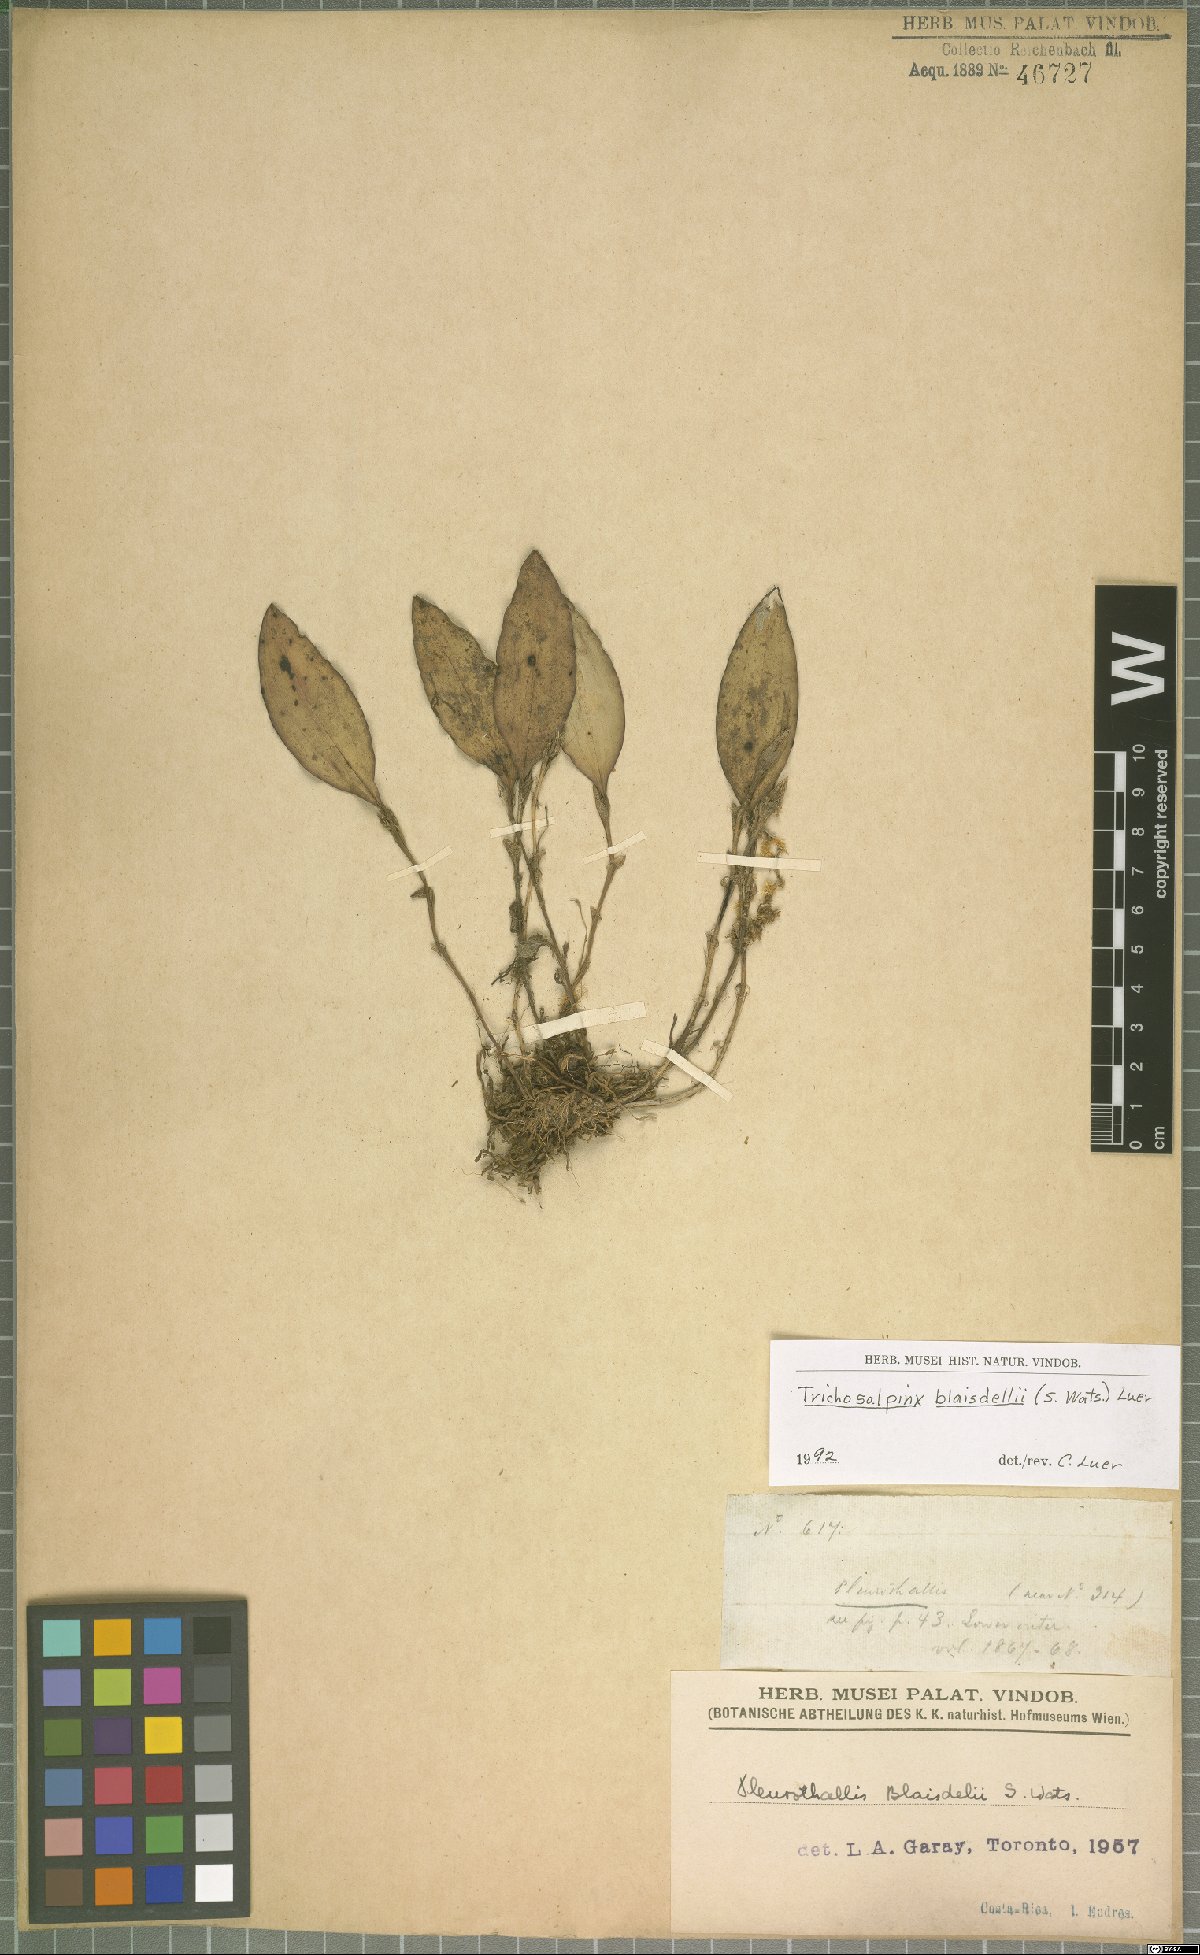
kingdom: Plantae
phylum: Tracheophyta
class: Liliopsida
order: Asparagales
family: Orchidaceae
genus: Trichosalpinx
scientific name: Trichosalpinx blaisdellii
